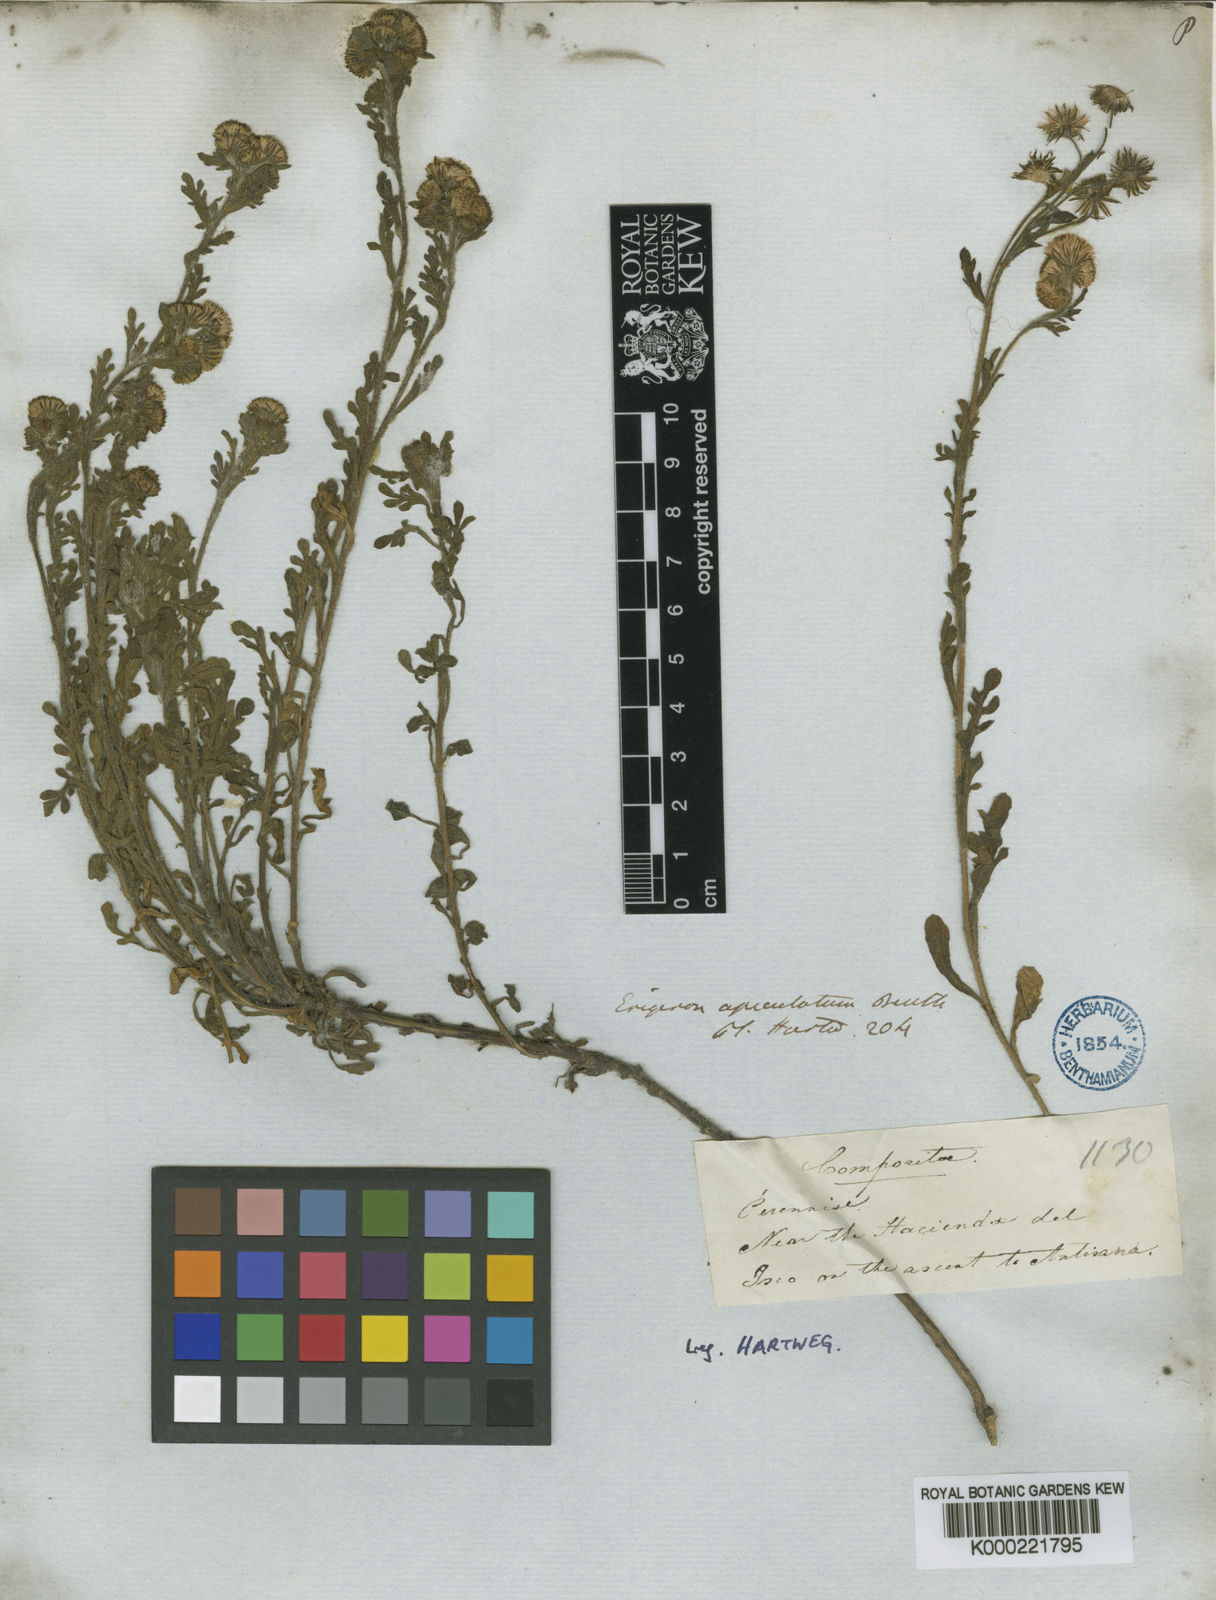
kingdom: Plantae
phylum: Tracheophyta
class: Magnoliopsida
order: Asterales
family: Asteraceae
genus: Erigeron
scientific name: Erigeron apiculatus
